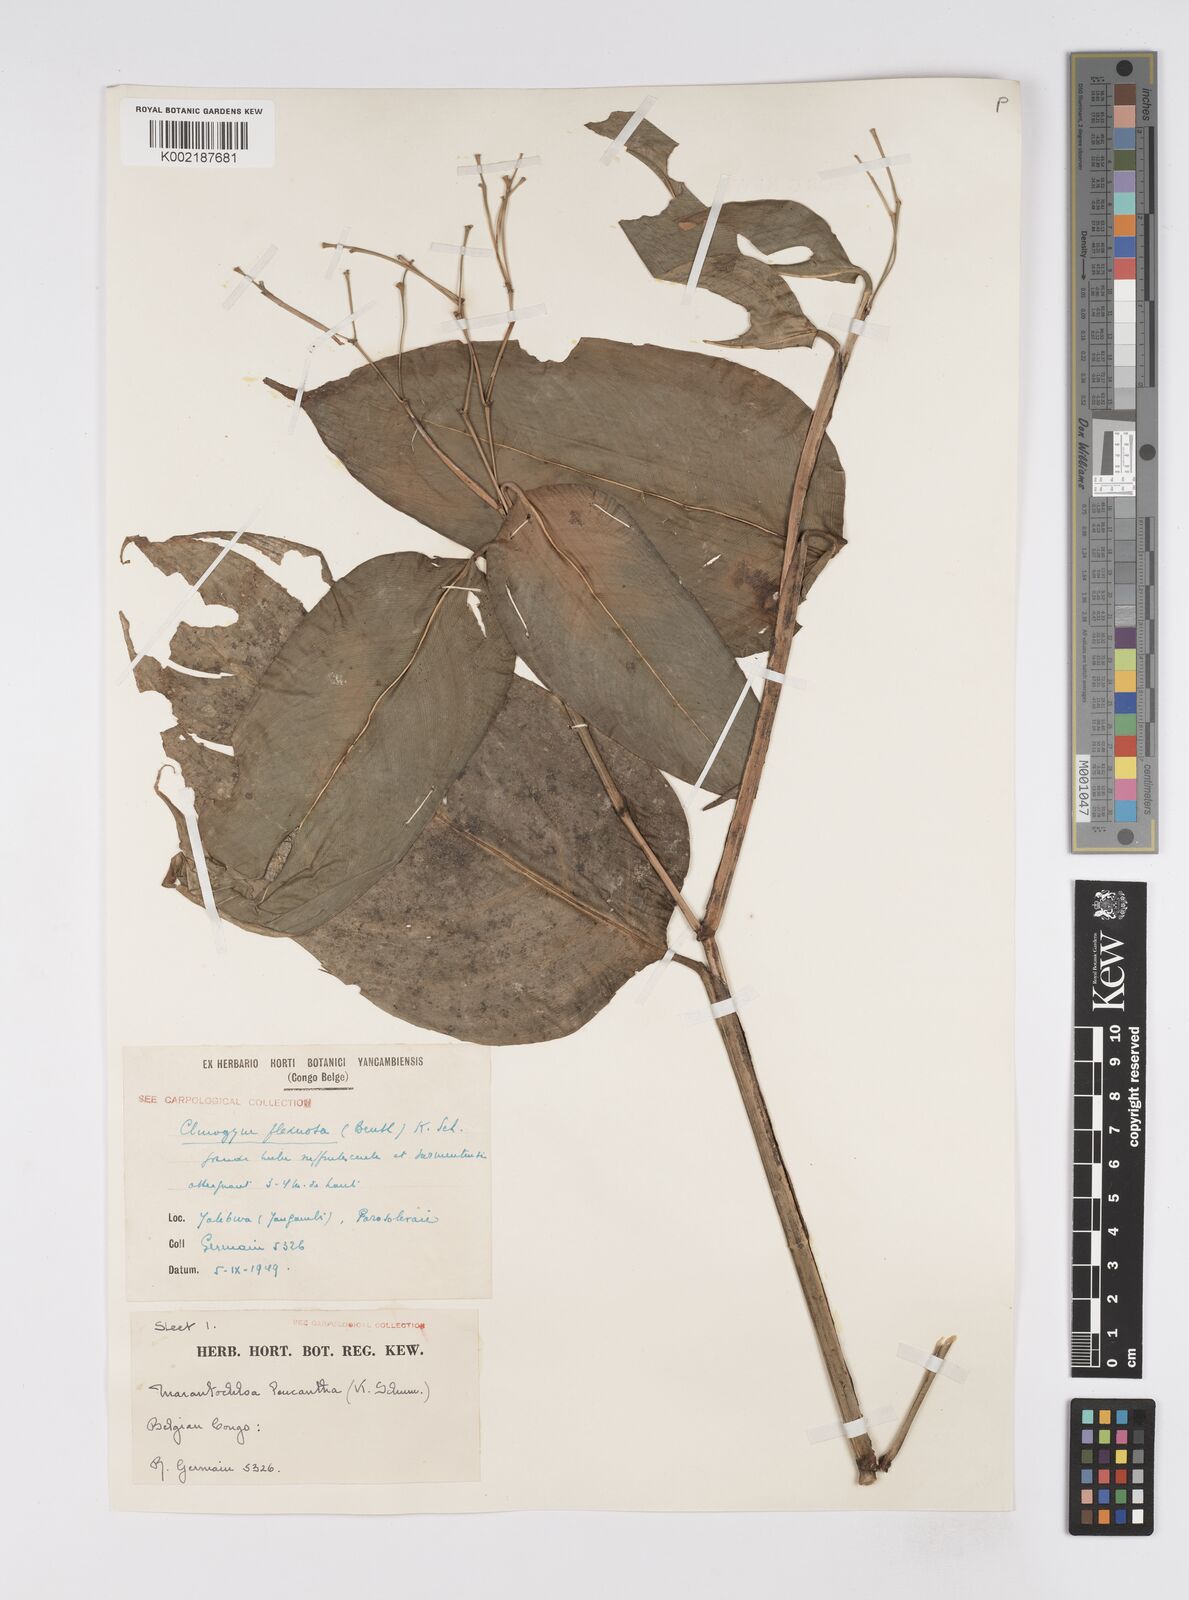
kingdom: Plantae
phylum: Tracheophyta
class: Liliopsida
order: Zingiberales
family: Marantaceae
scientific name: Marantaceae
